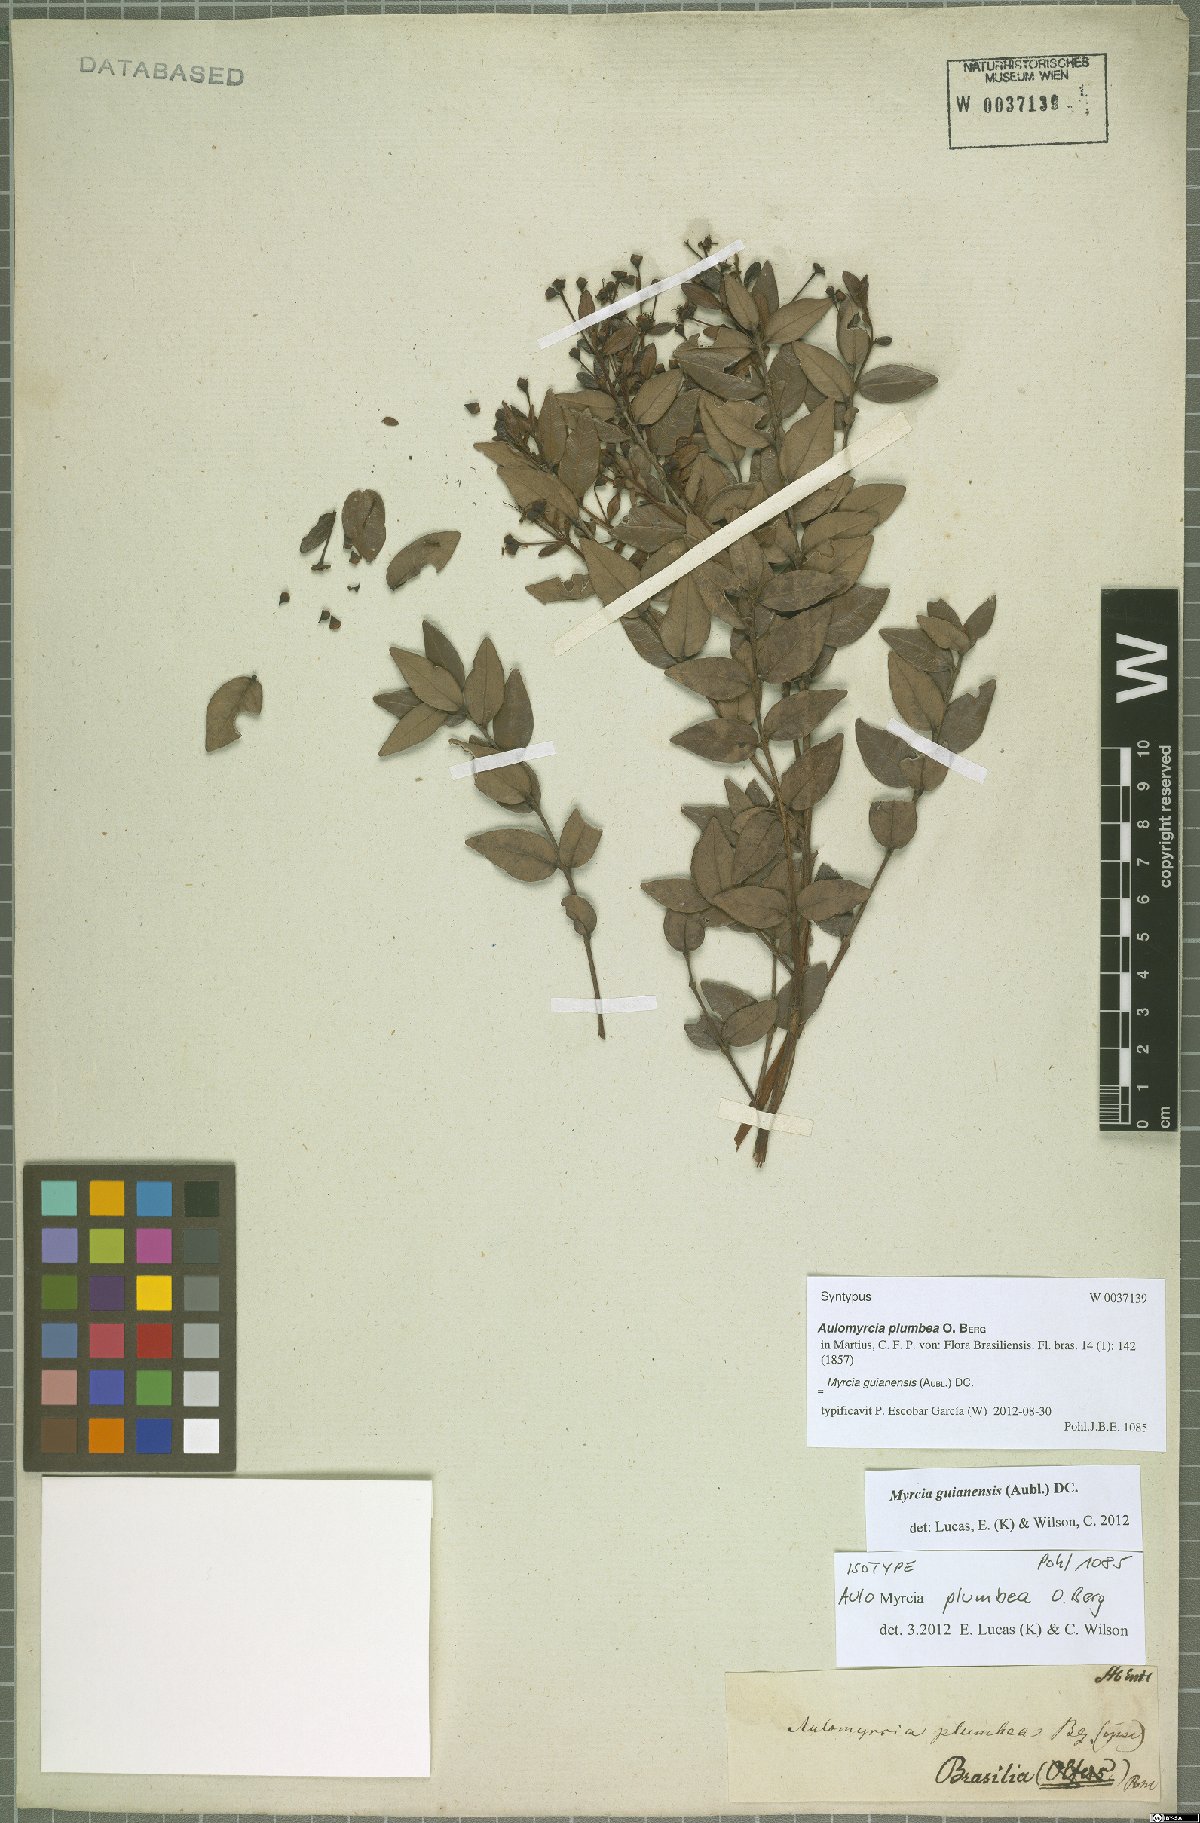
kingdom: Plantae
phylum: Tracheophyta
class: Magnoliopsida
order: Myrtales
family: Myrtaceae
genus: Myrcia
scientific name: Myrcia guianensis
